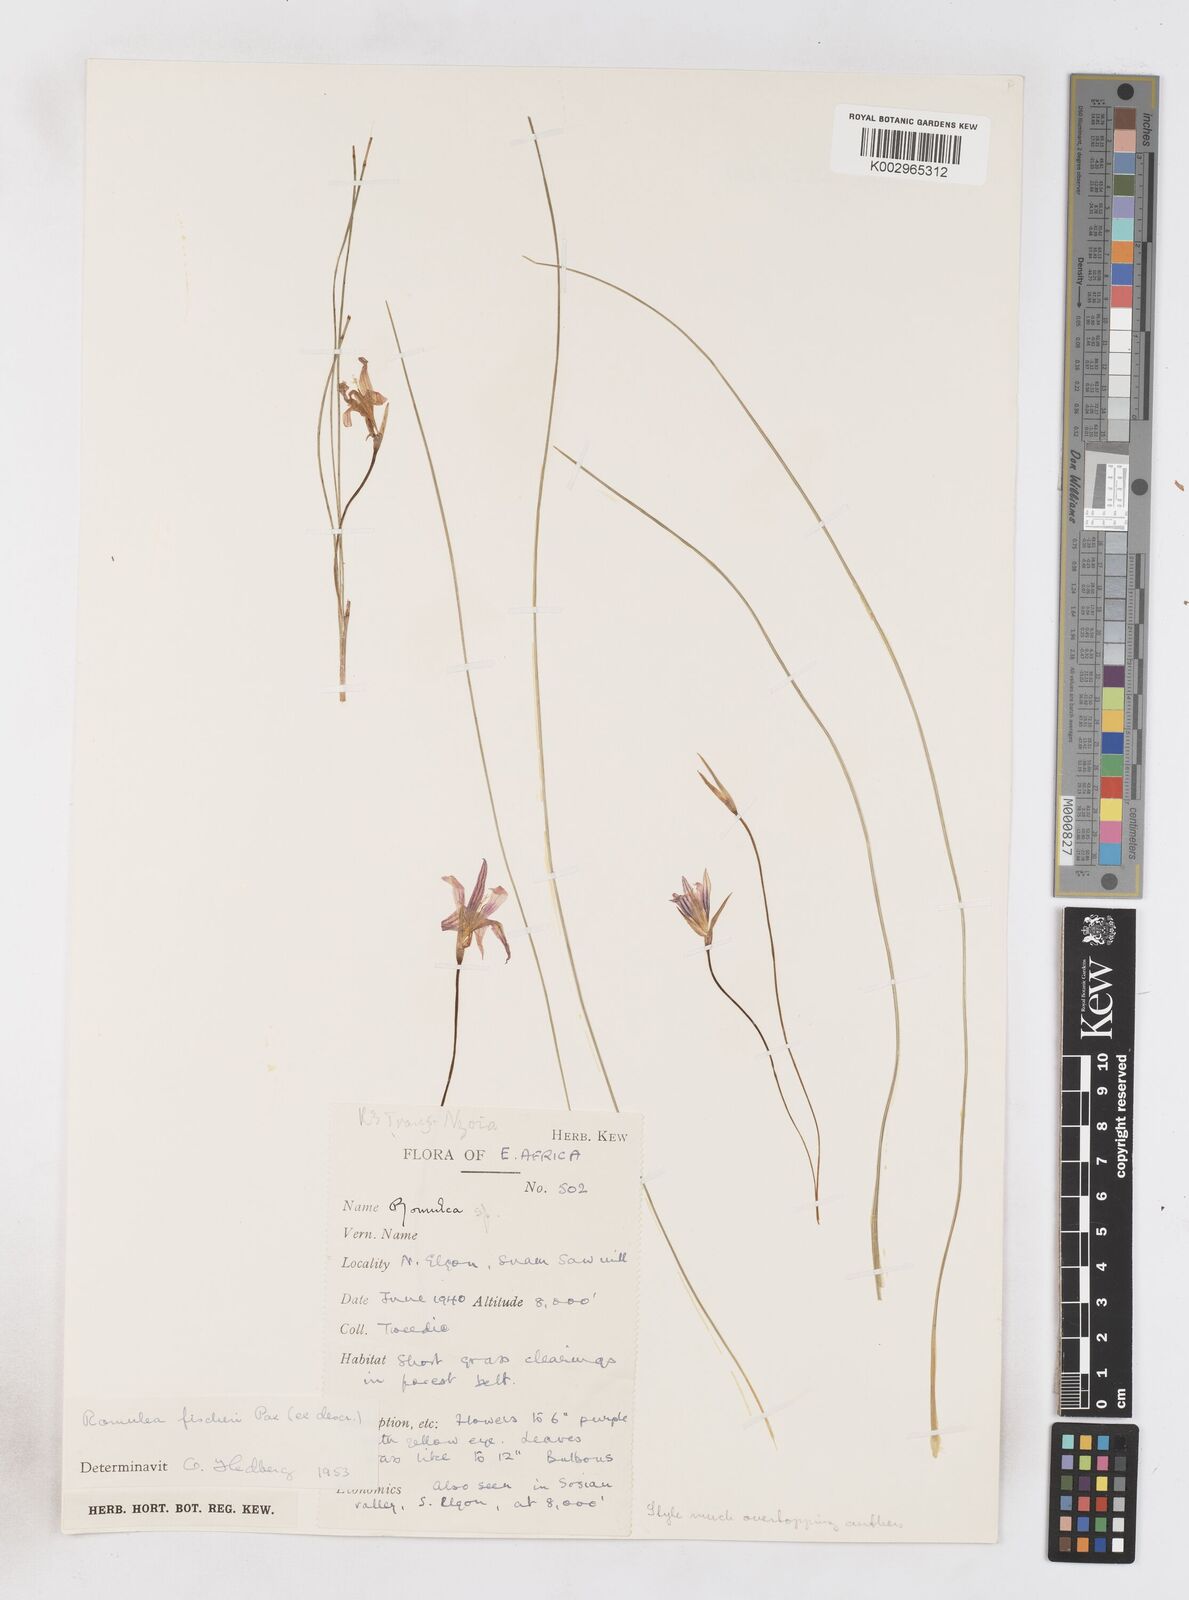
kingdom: Plantae
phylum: Tracheophyta
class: Liliopsida
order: Asparagales
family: Iridaceae
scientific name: Iridaceae
